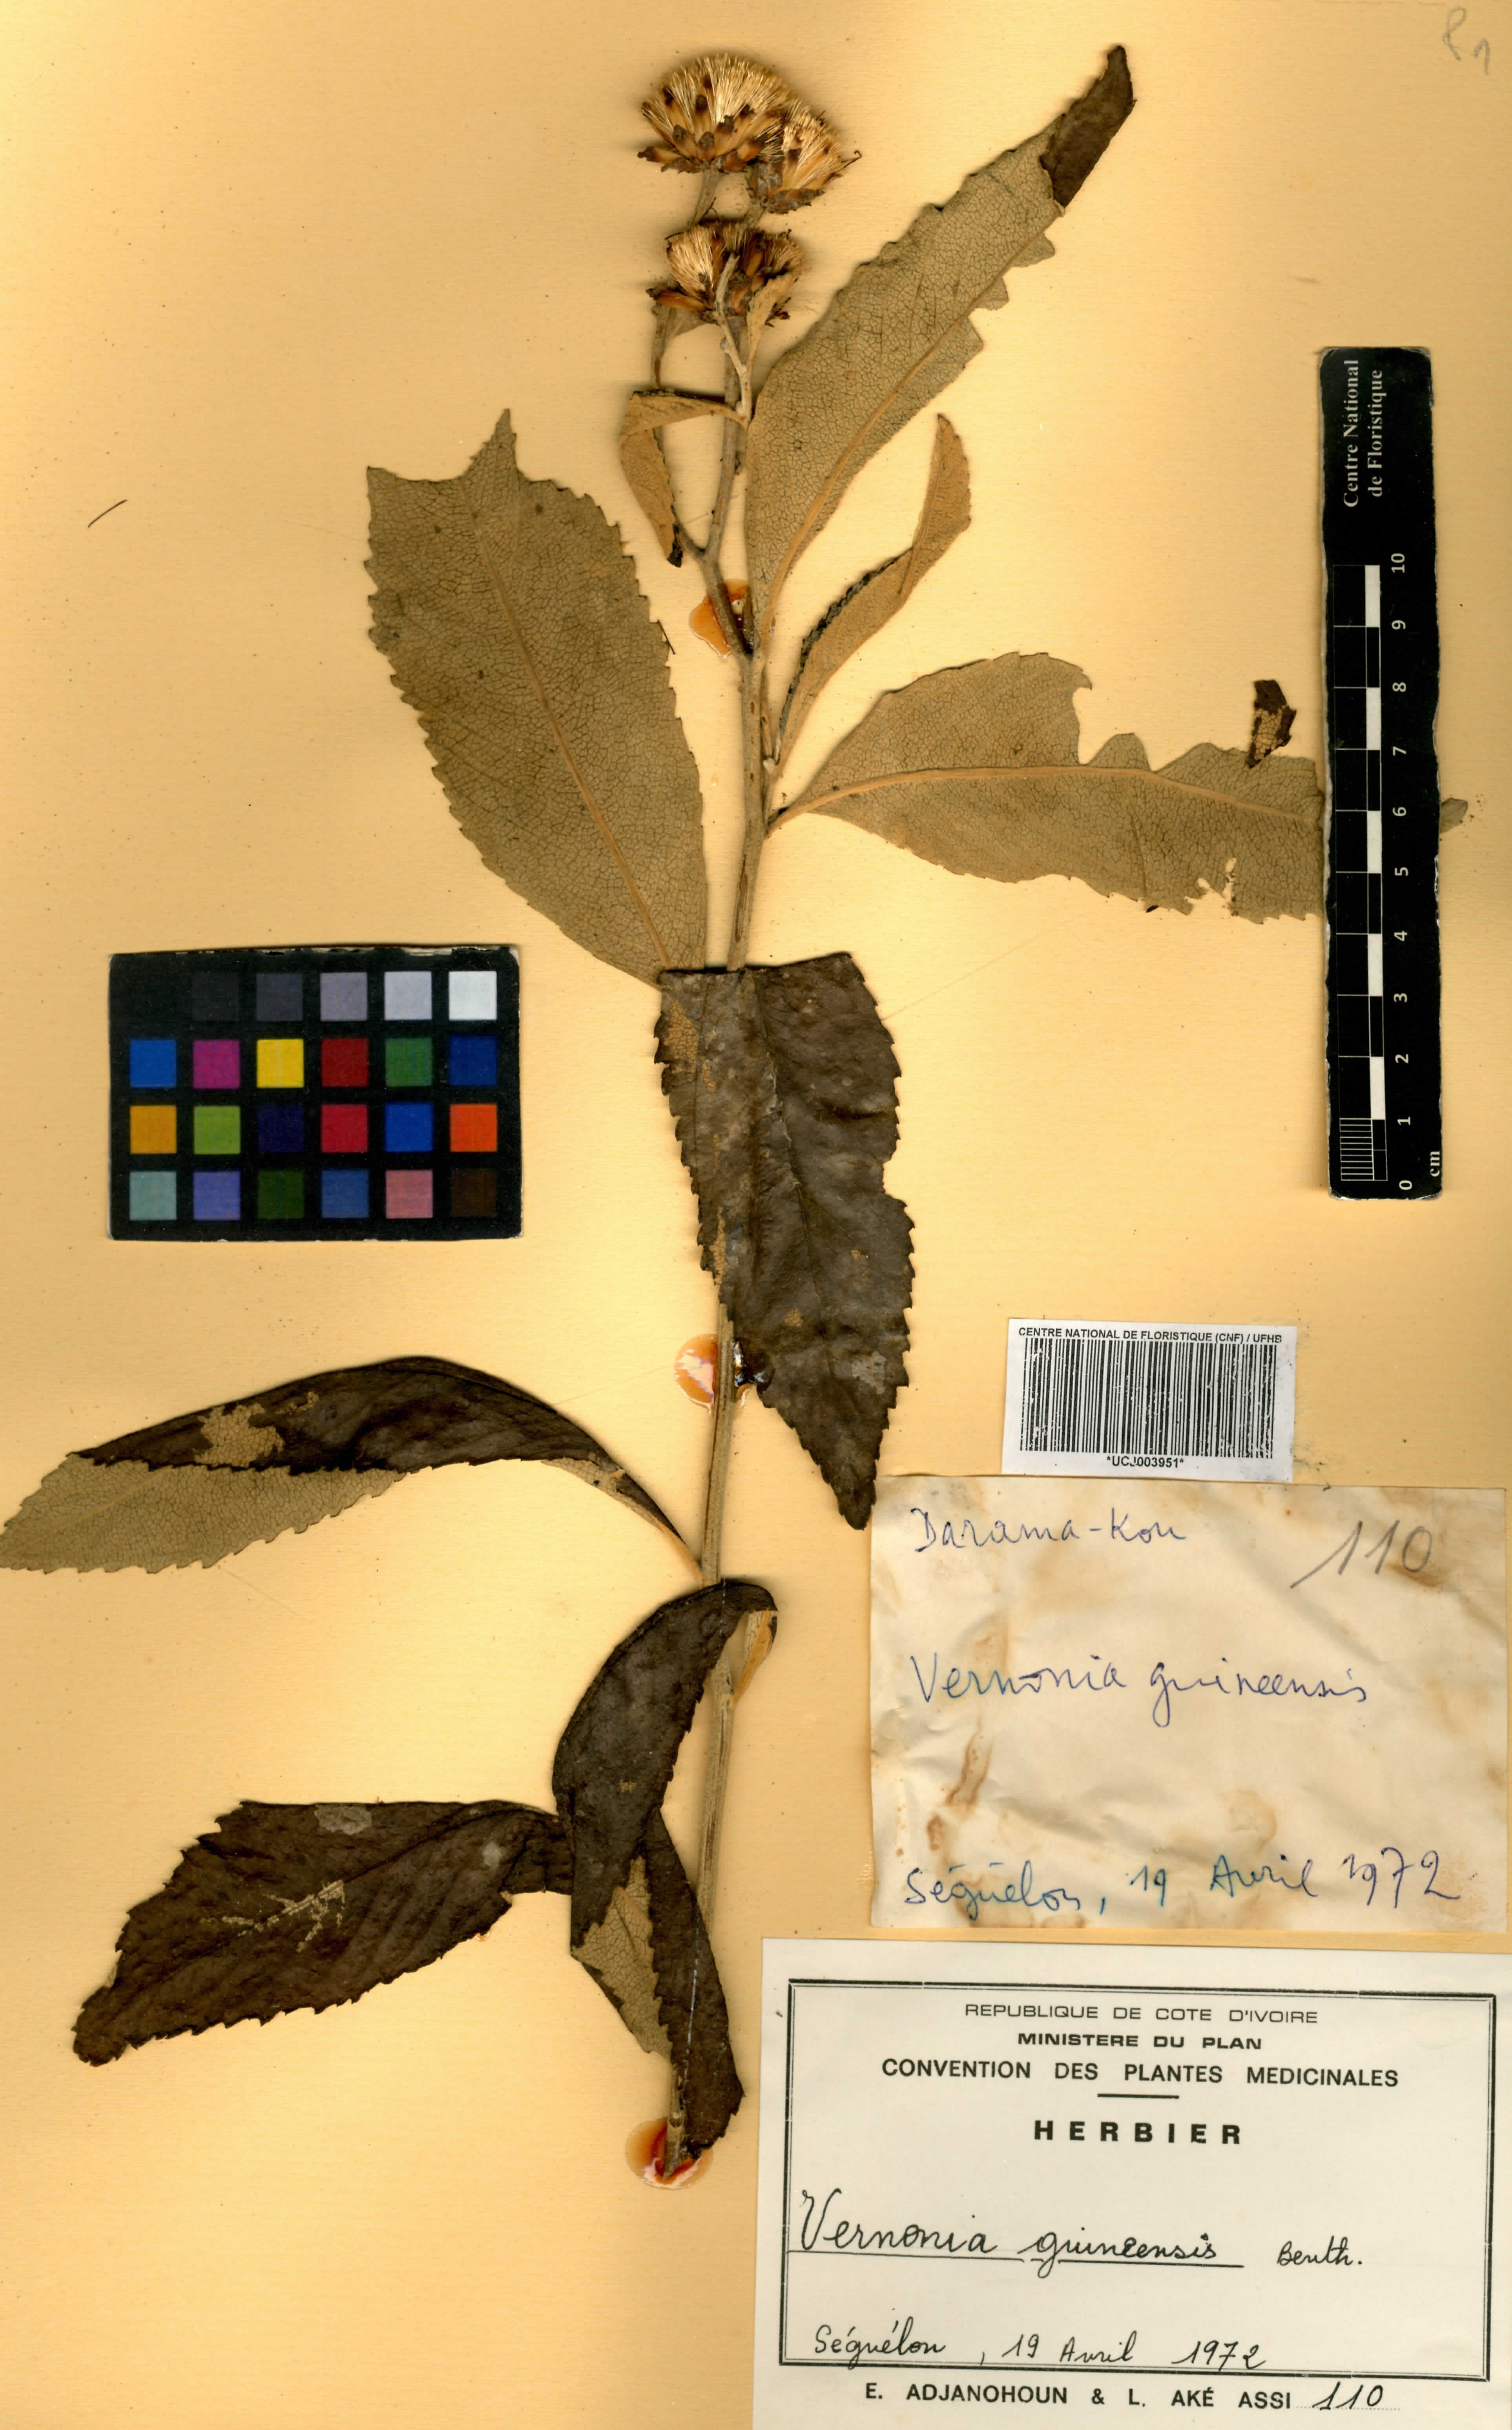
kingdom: Plantae
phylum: Tracheophyta
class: Magnoliopsida
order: Asterales
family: Asteraceae
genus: Baccharoides
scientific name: Baccharoides guineensis
